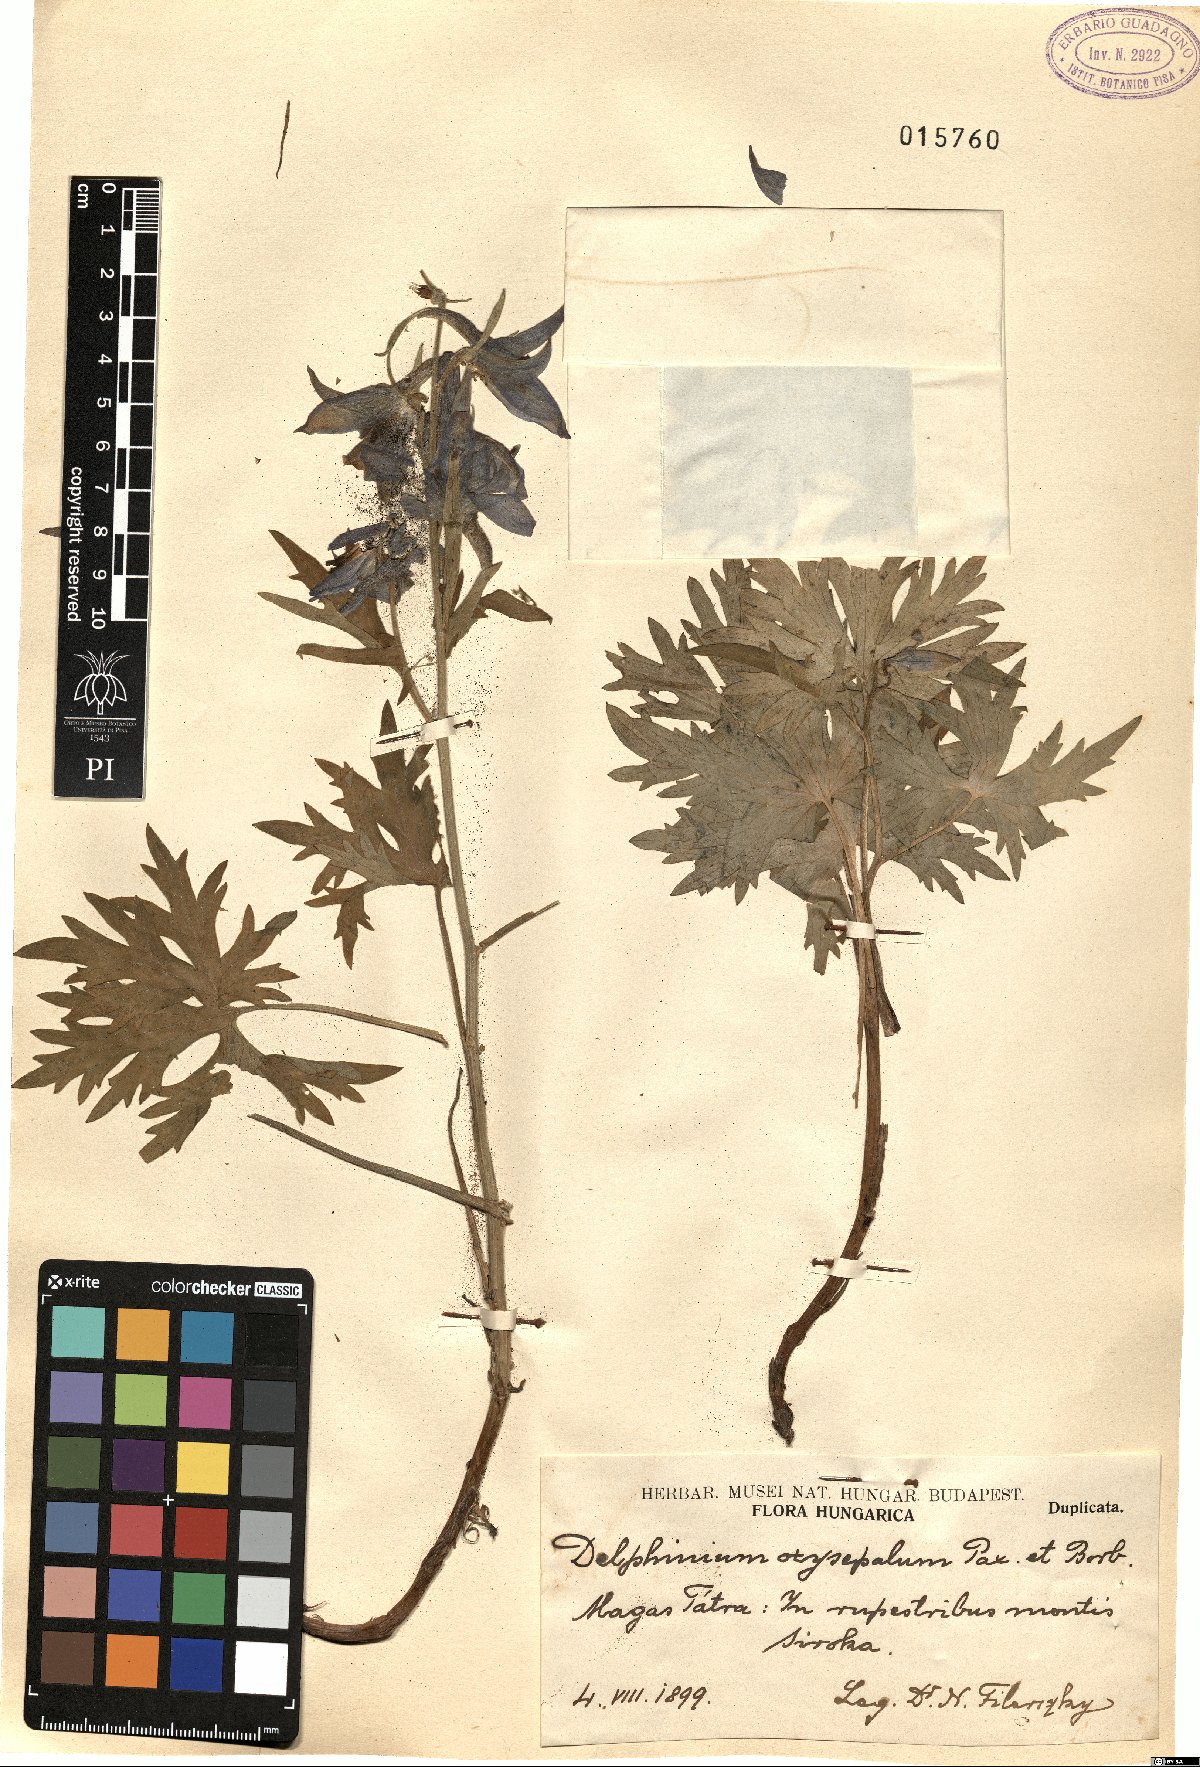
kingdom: Plantae
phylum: Tracheophyta
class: Magnoliopsida
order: Ranunculales
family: Ranunculaceae
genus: Delphinium
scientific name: Delphinium oxysepalum
